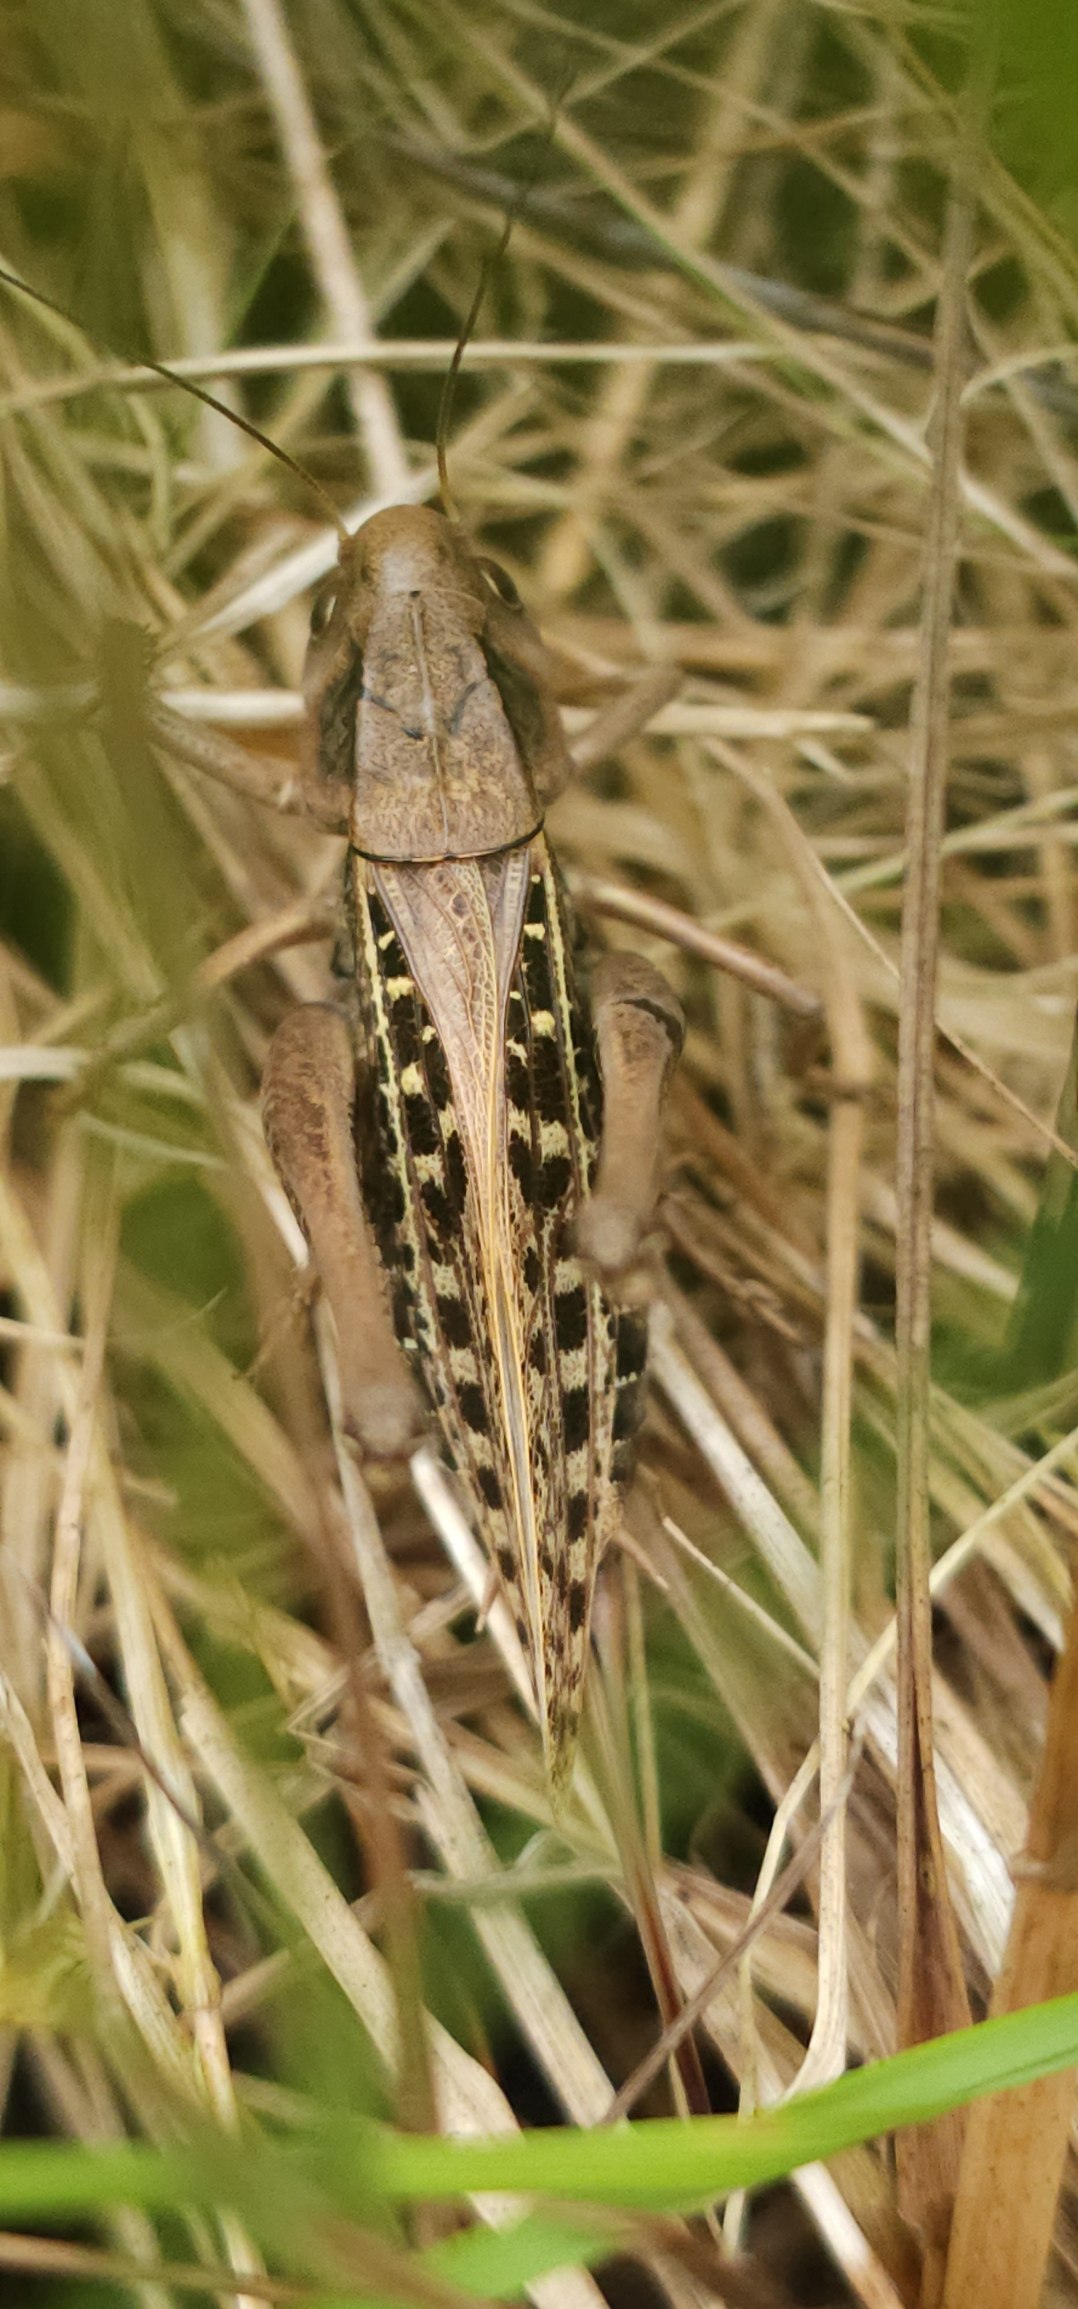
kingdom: Animalia
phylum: Arthropoda
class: Insecta
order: Orthoptera
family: Tettigoniidae
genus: Decticus
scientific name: Decticus verrucivorus
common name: Vortebider
